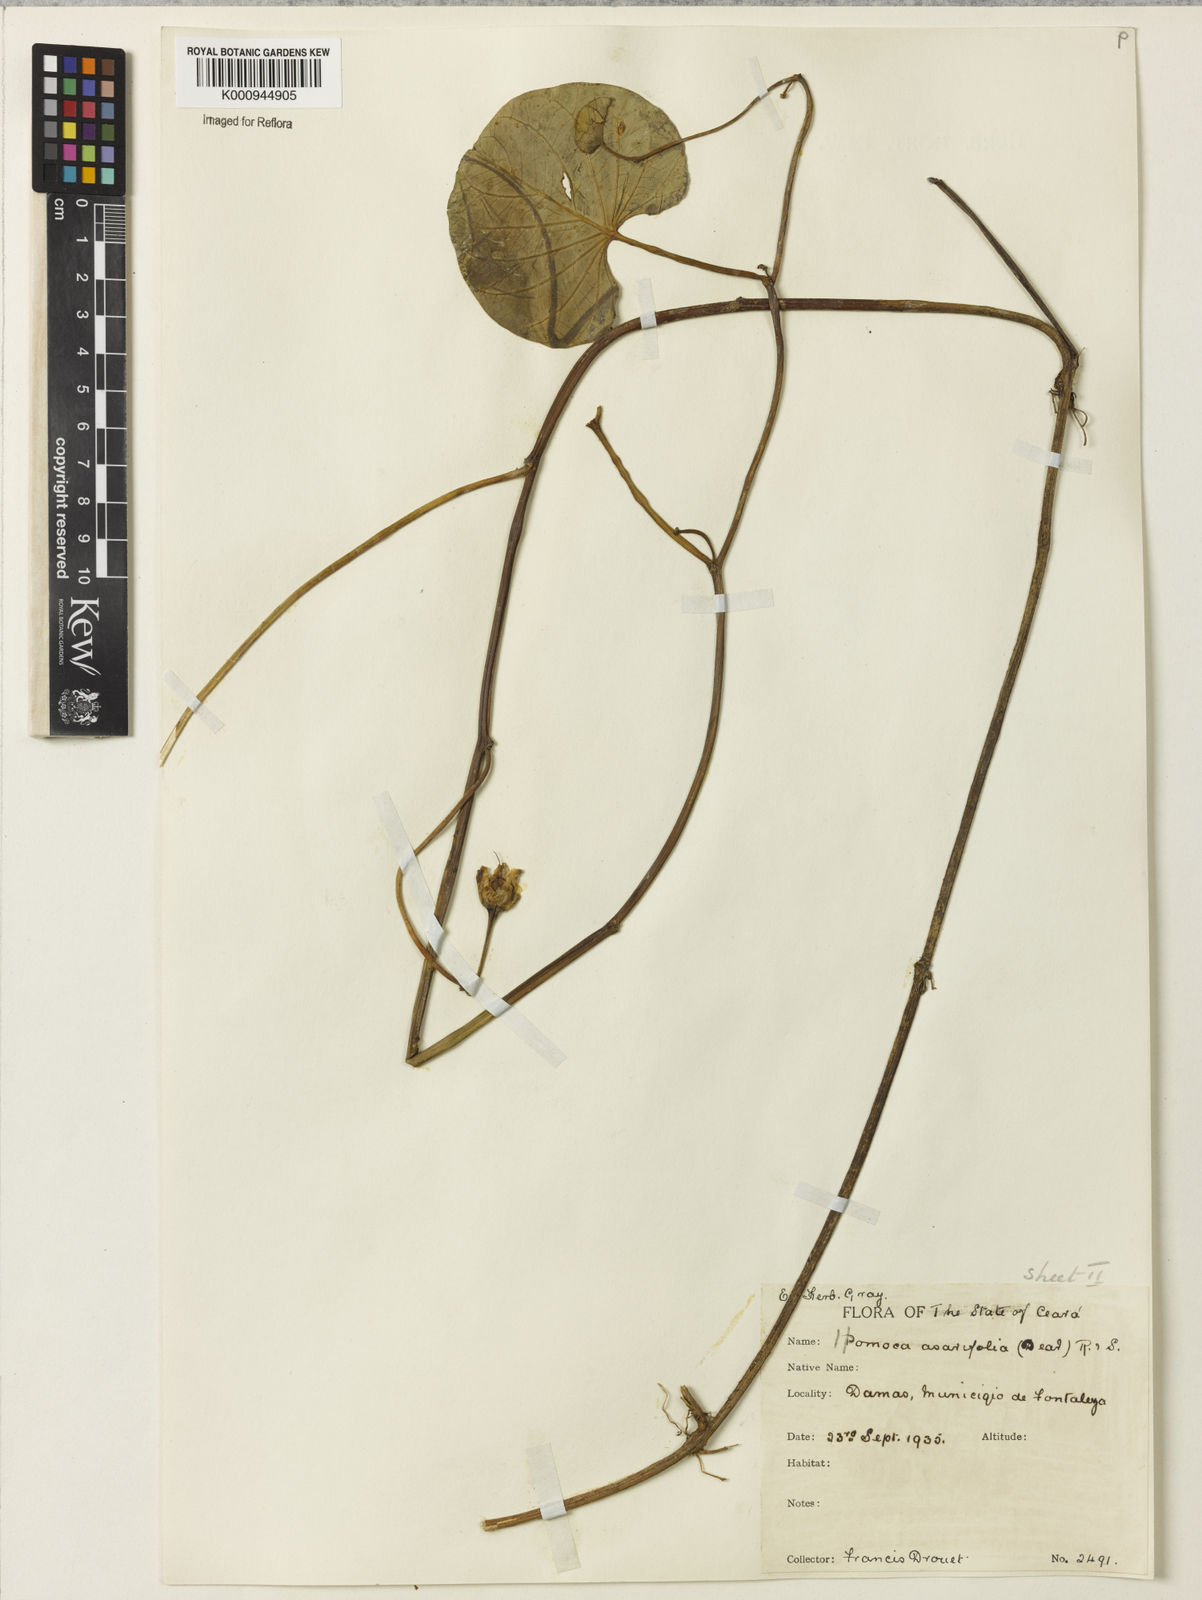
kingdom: Plantae
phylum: Tracheophyta
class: Magnoliopsida
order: Solanales
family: Convolvulaceae
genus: Ipomoea
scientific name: Ipomoea asarifolia
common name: Ginger-leaf morning-glory
